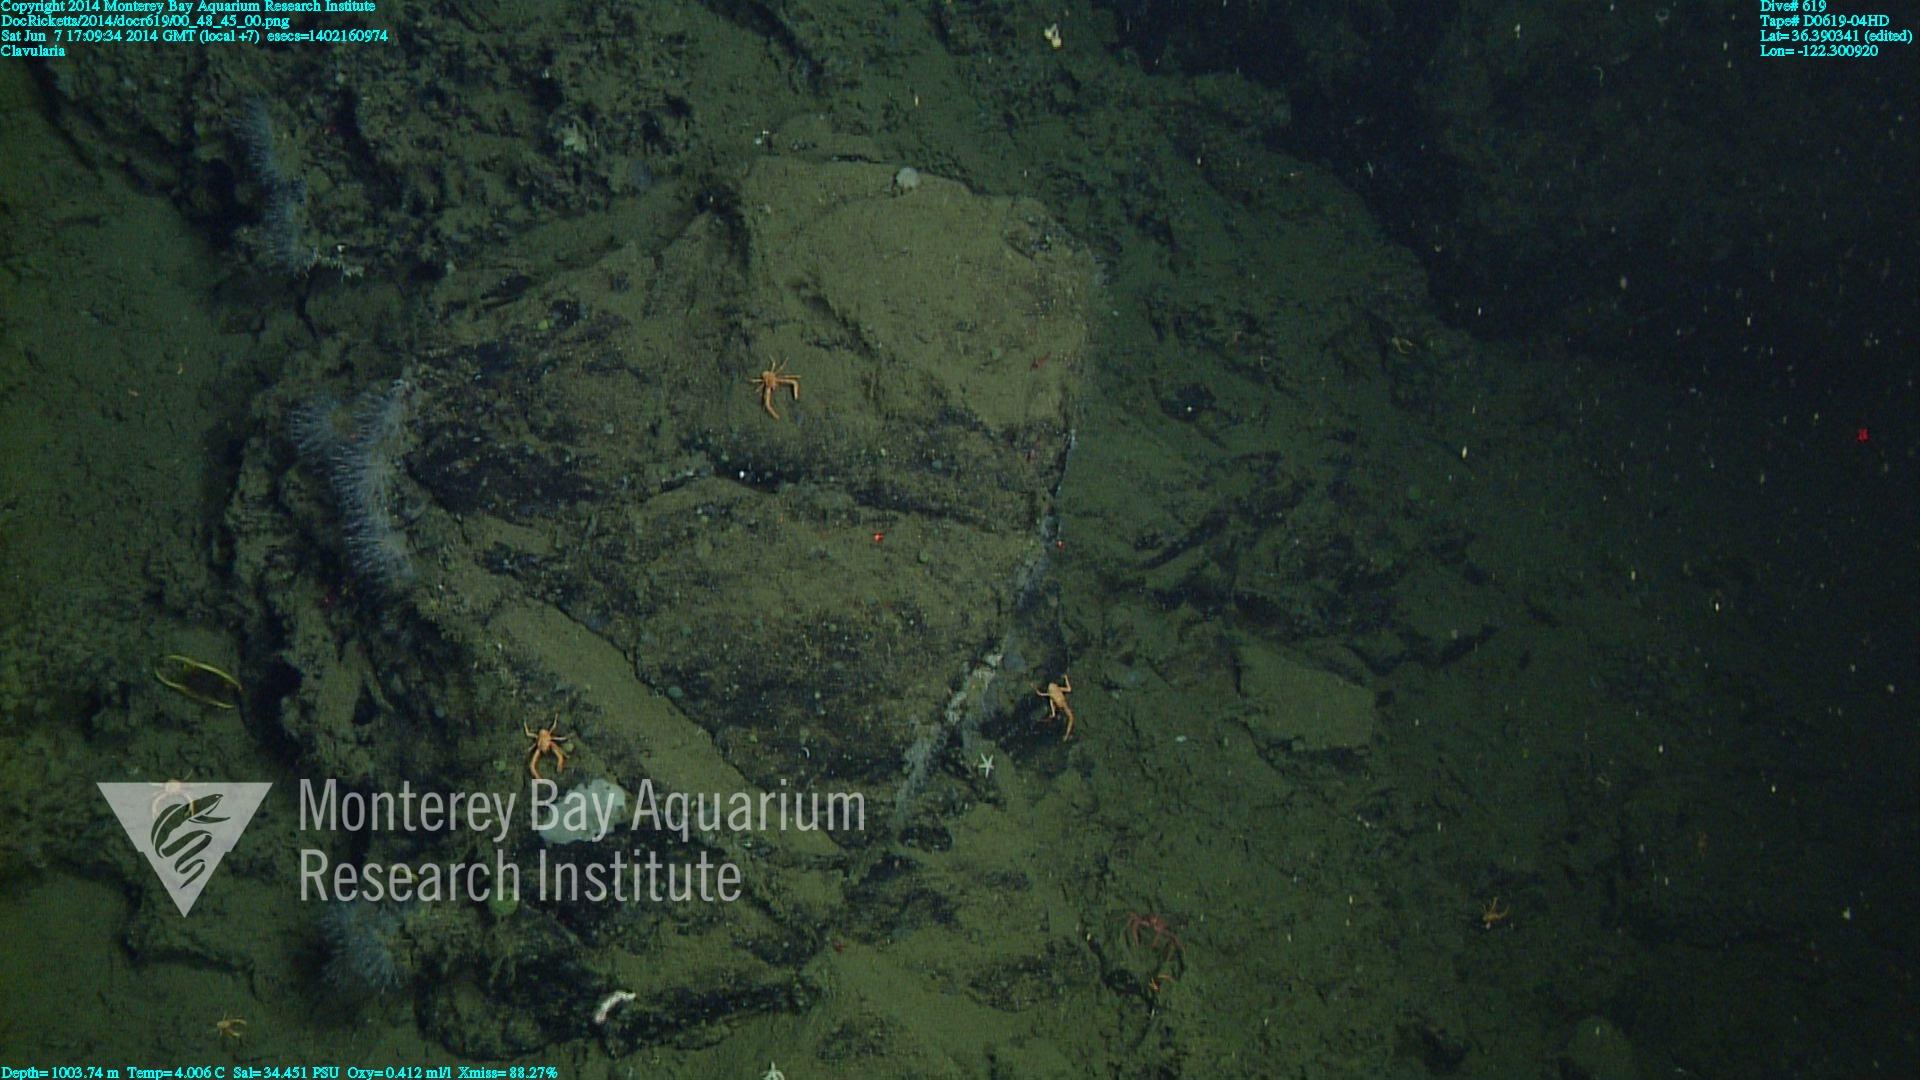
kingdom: Animalia
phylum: Cnidaria
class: Anthozoa
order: Malacalcyonacea
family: Clavulariidae
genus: Clavularia
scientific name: Clavularia
